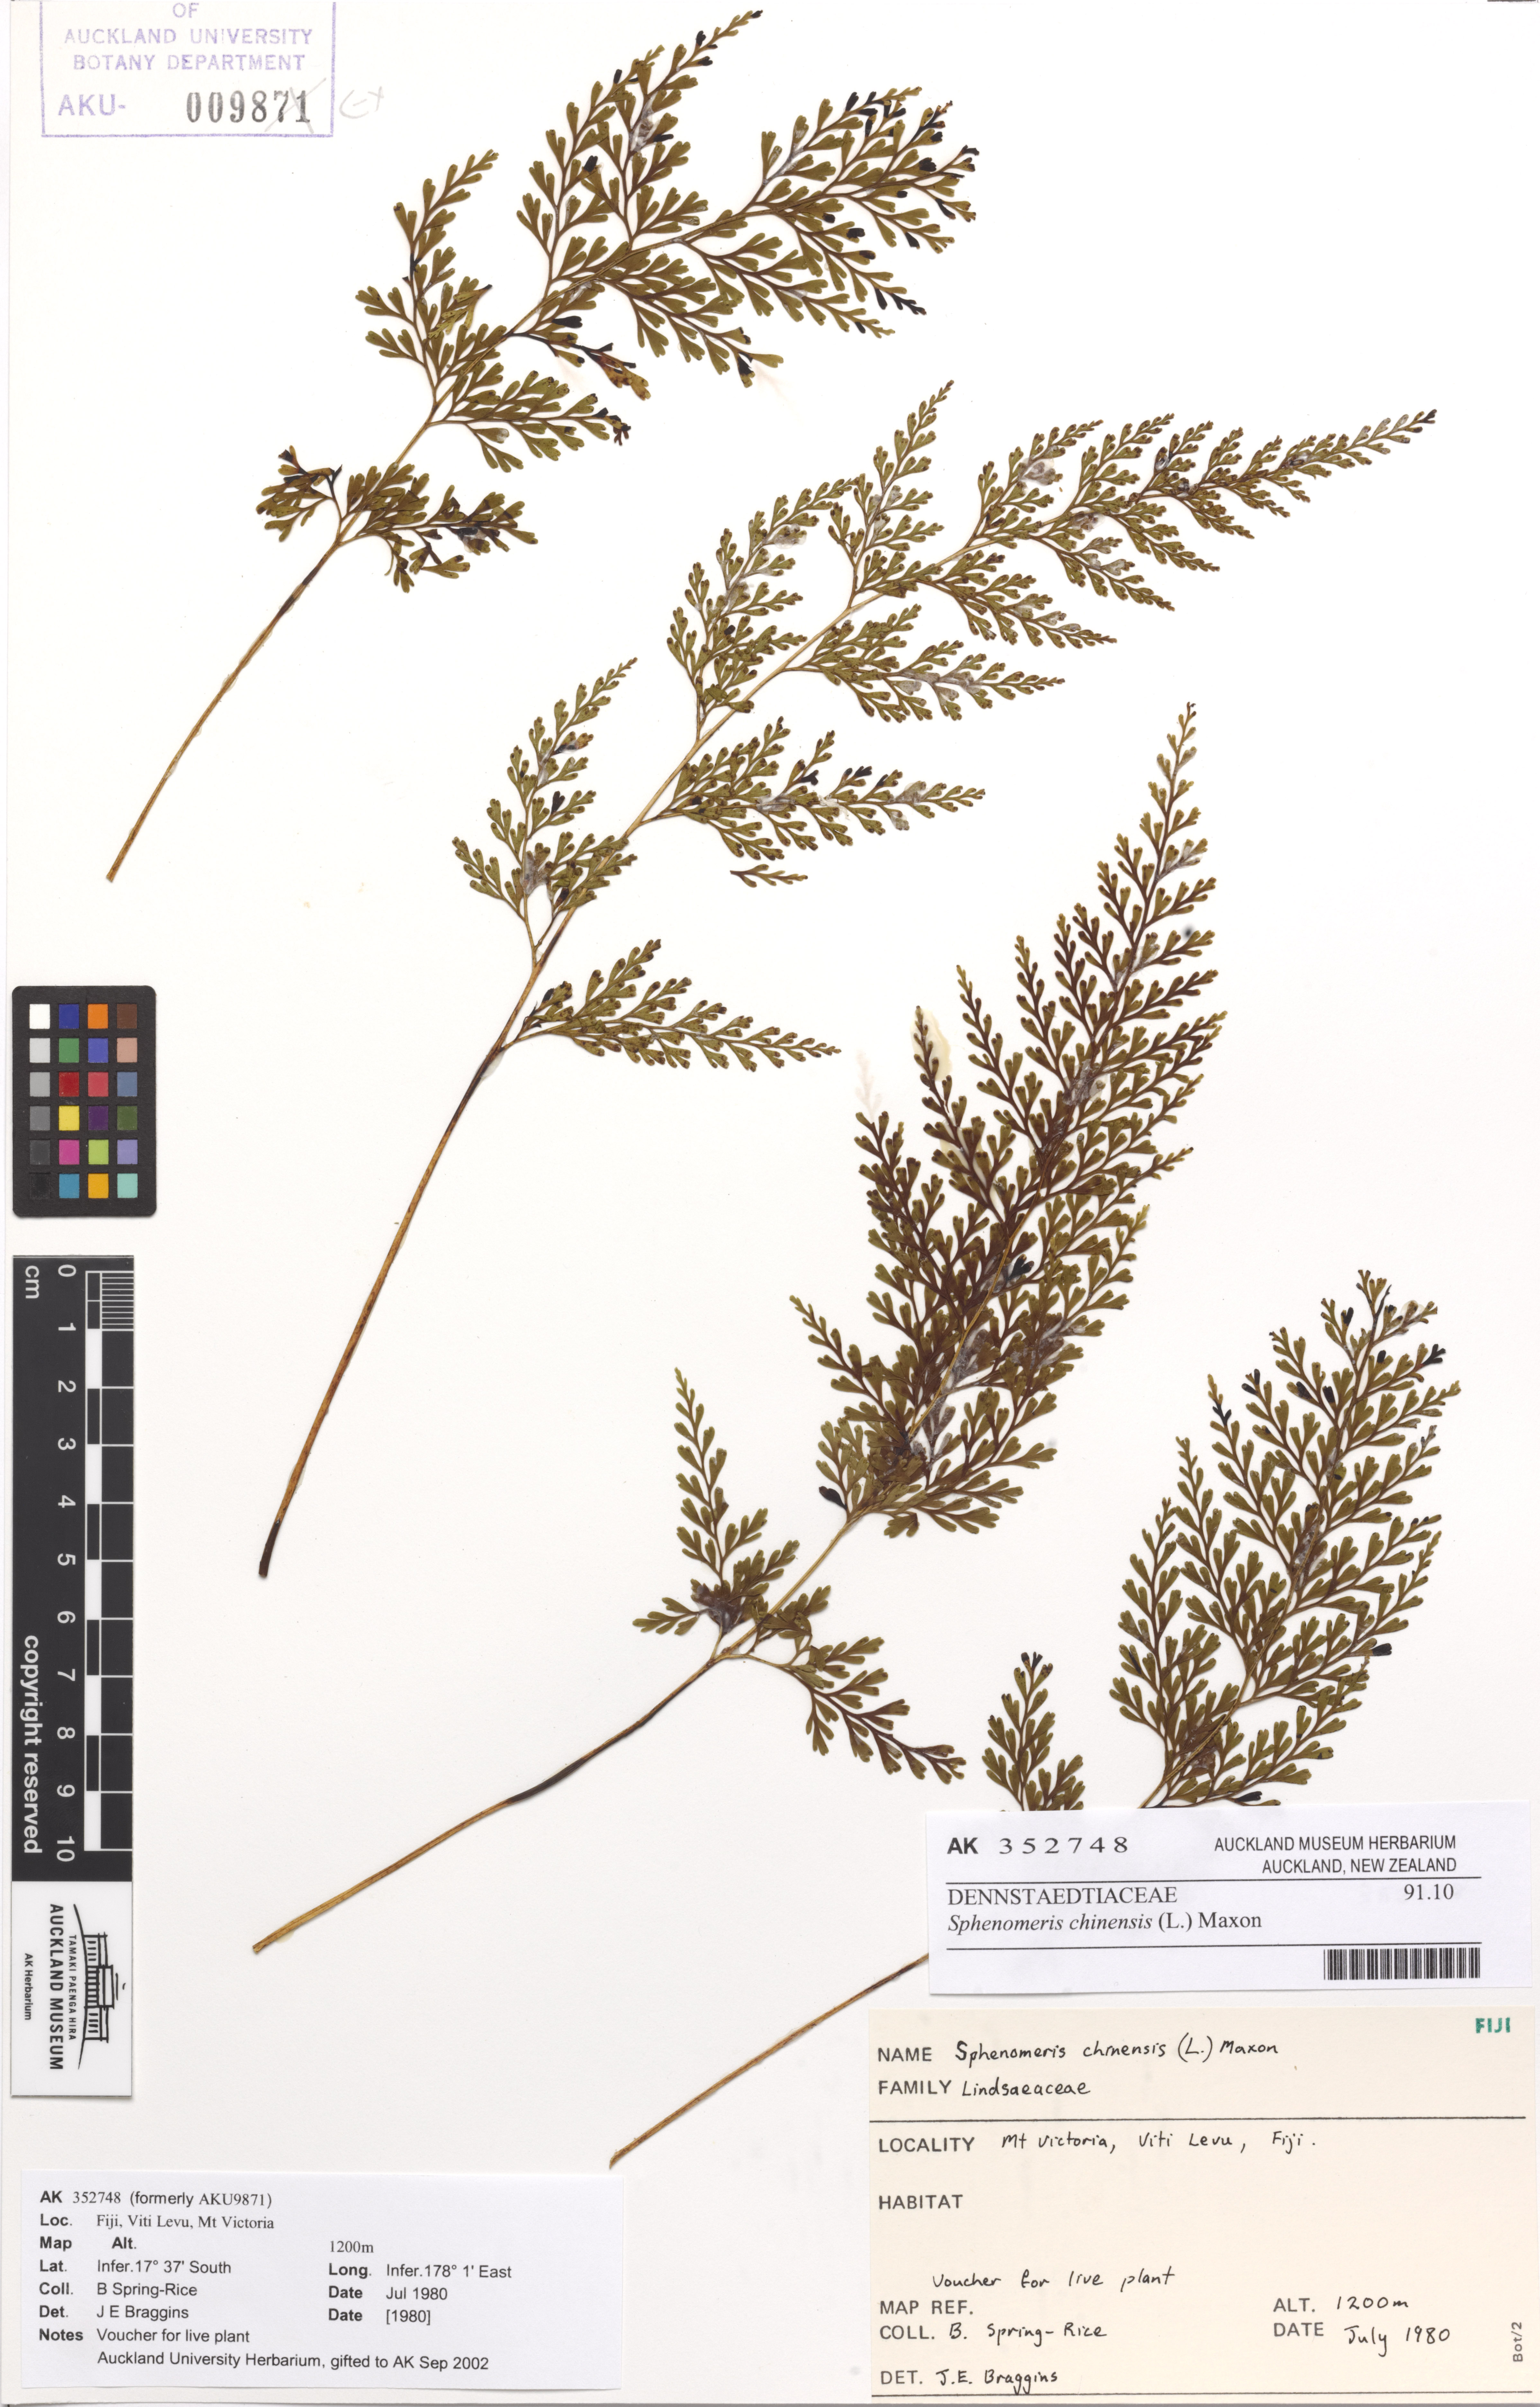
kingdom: Plantae
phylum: Tracheophyta
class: Polypodiopsida
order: Polypodiales
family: Lindsaeaceae
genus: Odontosoria
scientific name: Odontosoria chinensis
